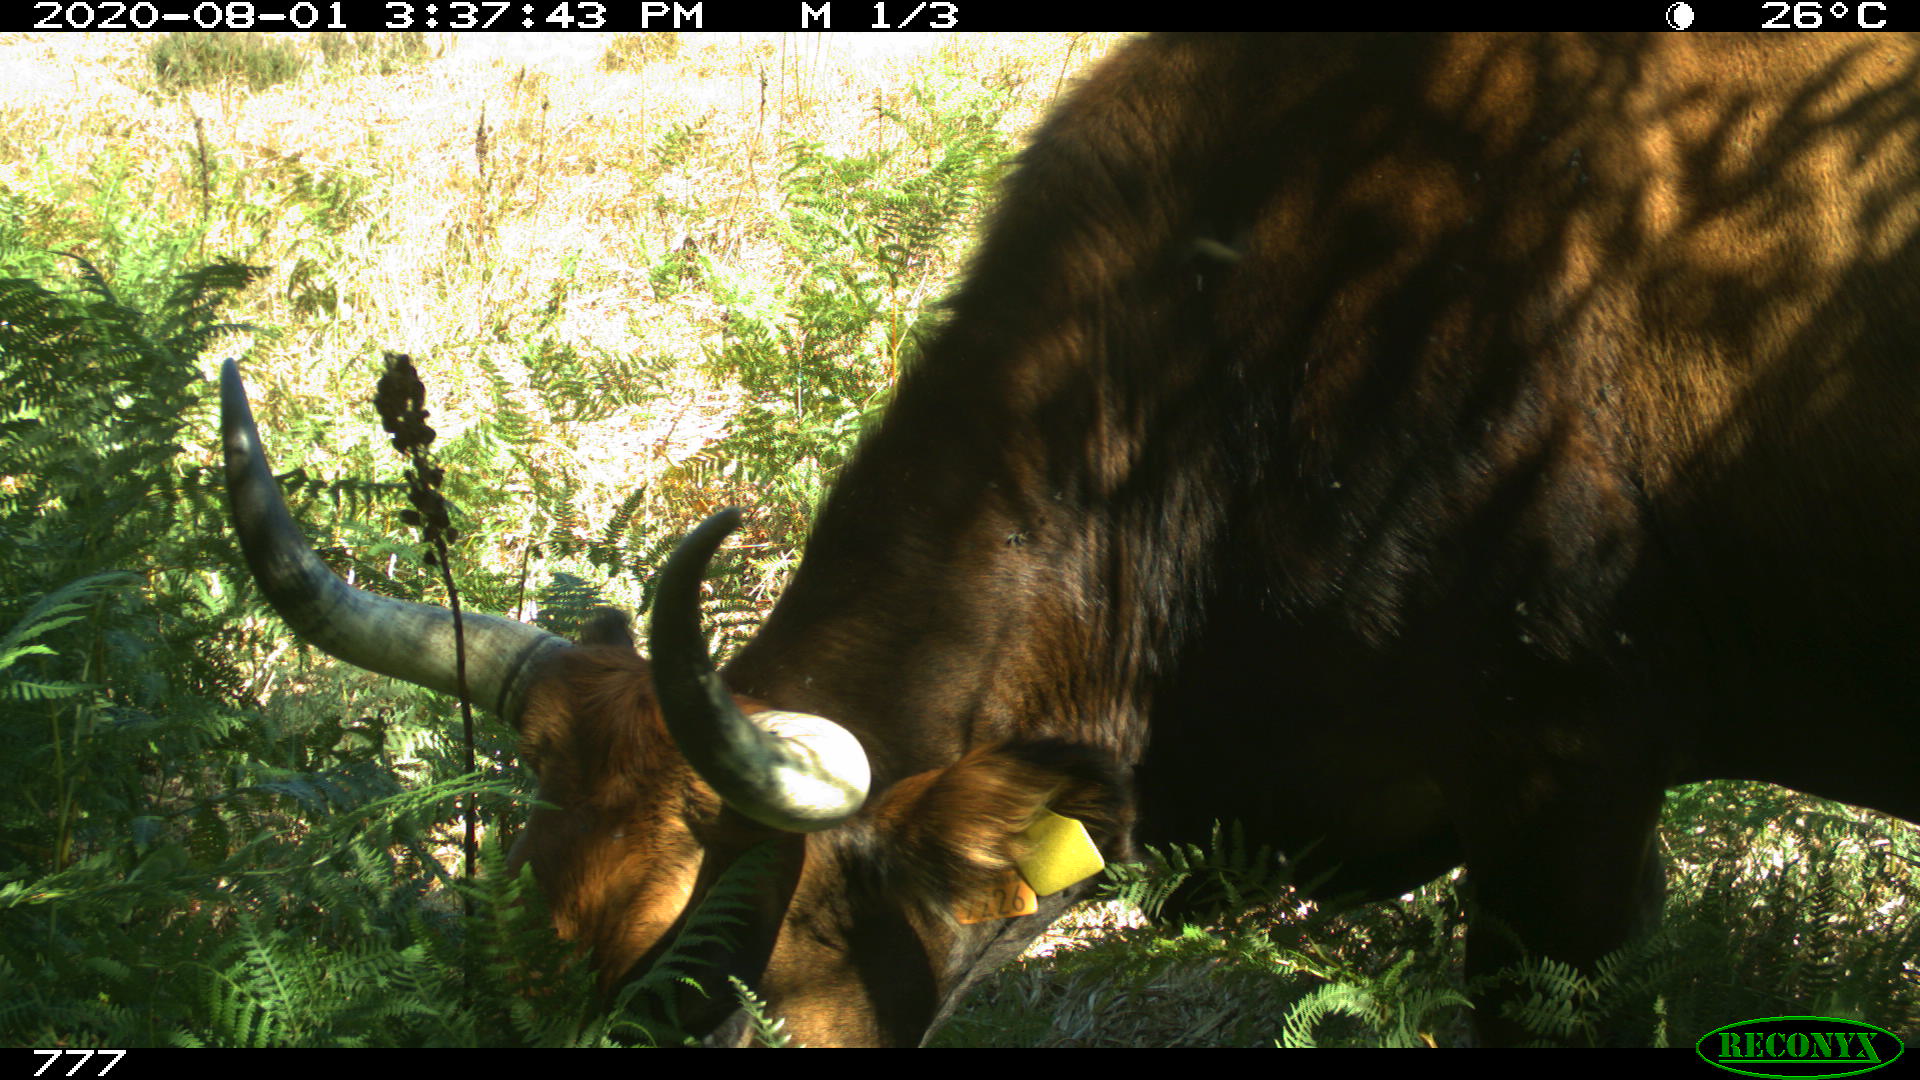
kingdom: Animalia
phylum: Chordata
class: Mammalia
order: Artiodactyla
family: Bovidae
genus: Bos
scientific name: Bos taurus
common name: Domesticated cattle
